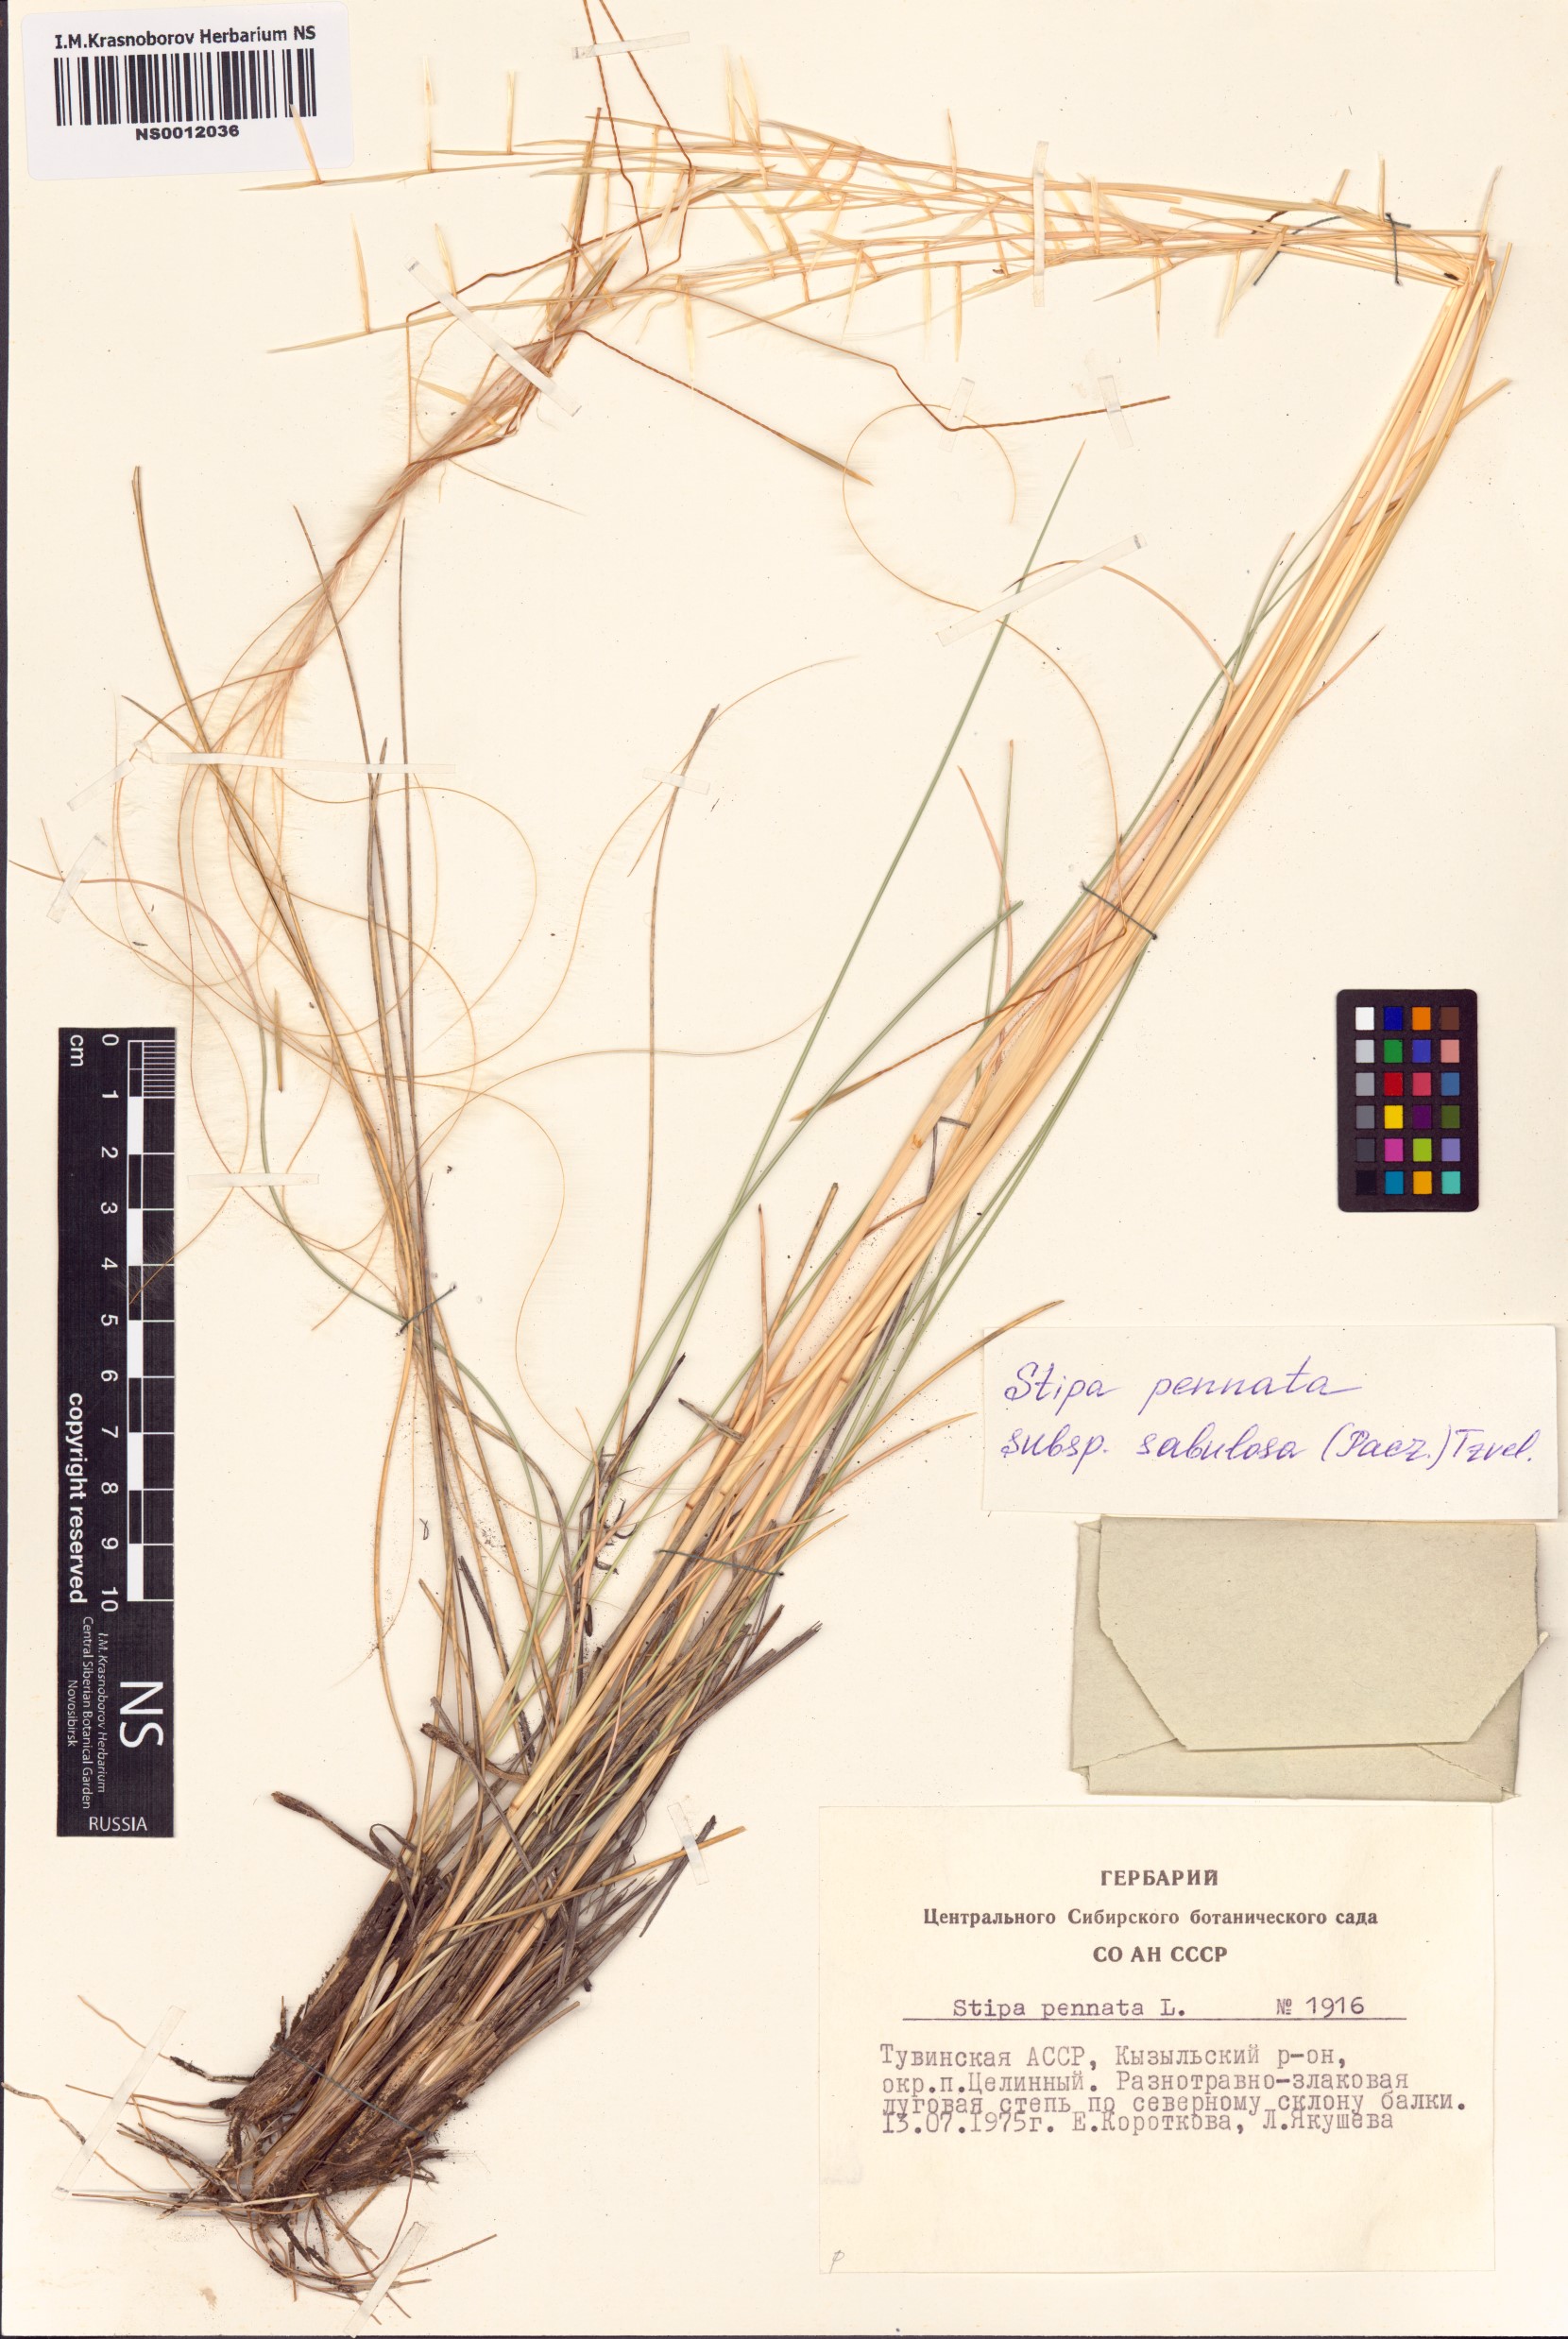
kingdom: Plantae
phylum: Tracheophyta
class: Liliopsida
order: Poales
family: Poaceae
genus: Stipa
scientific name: Stipa borysthenica
